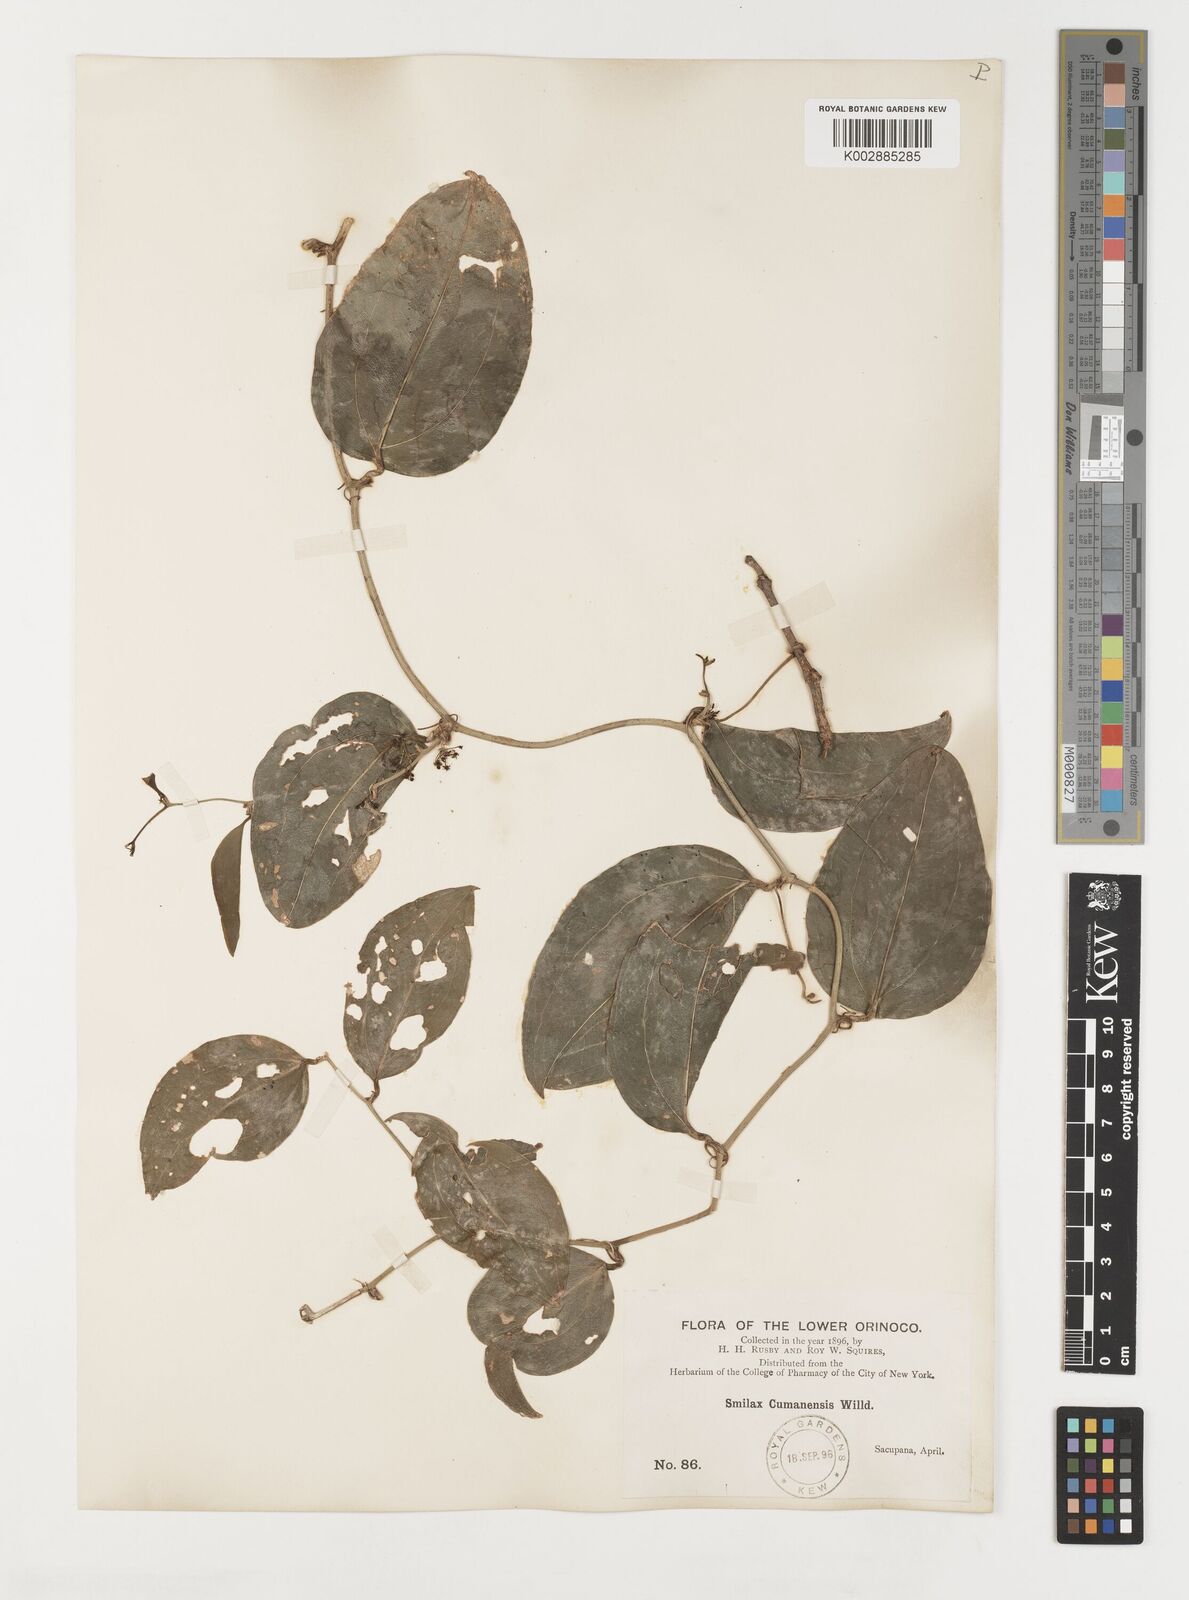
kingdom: Plantae
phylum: Tracheophyta
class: Liliopsida
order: Liliales
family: Smilacaceae
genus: Smilax
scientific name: Smilax oblongata
